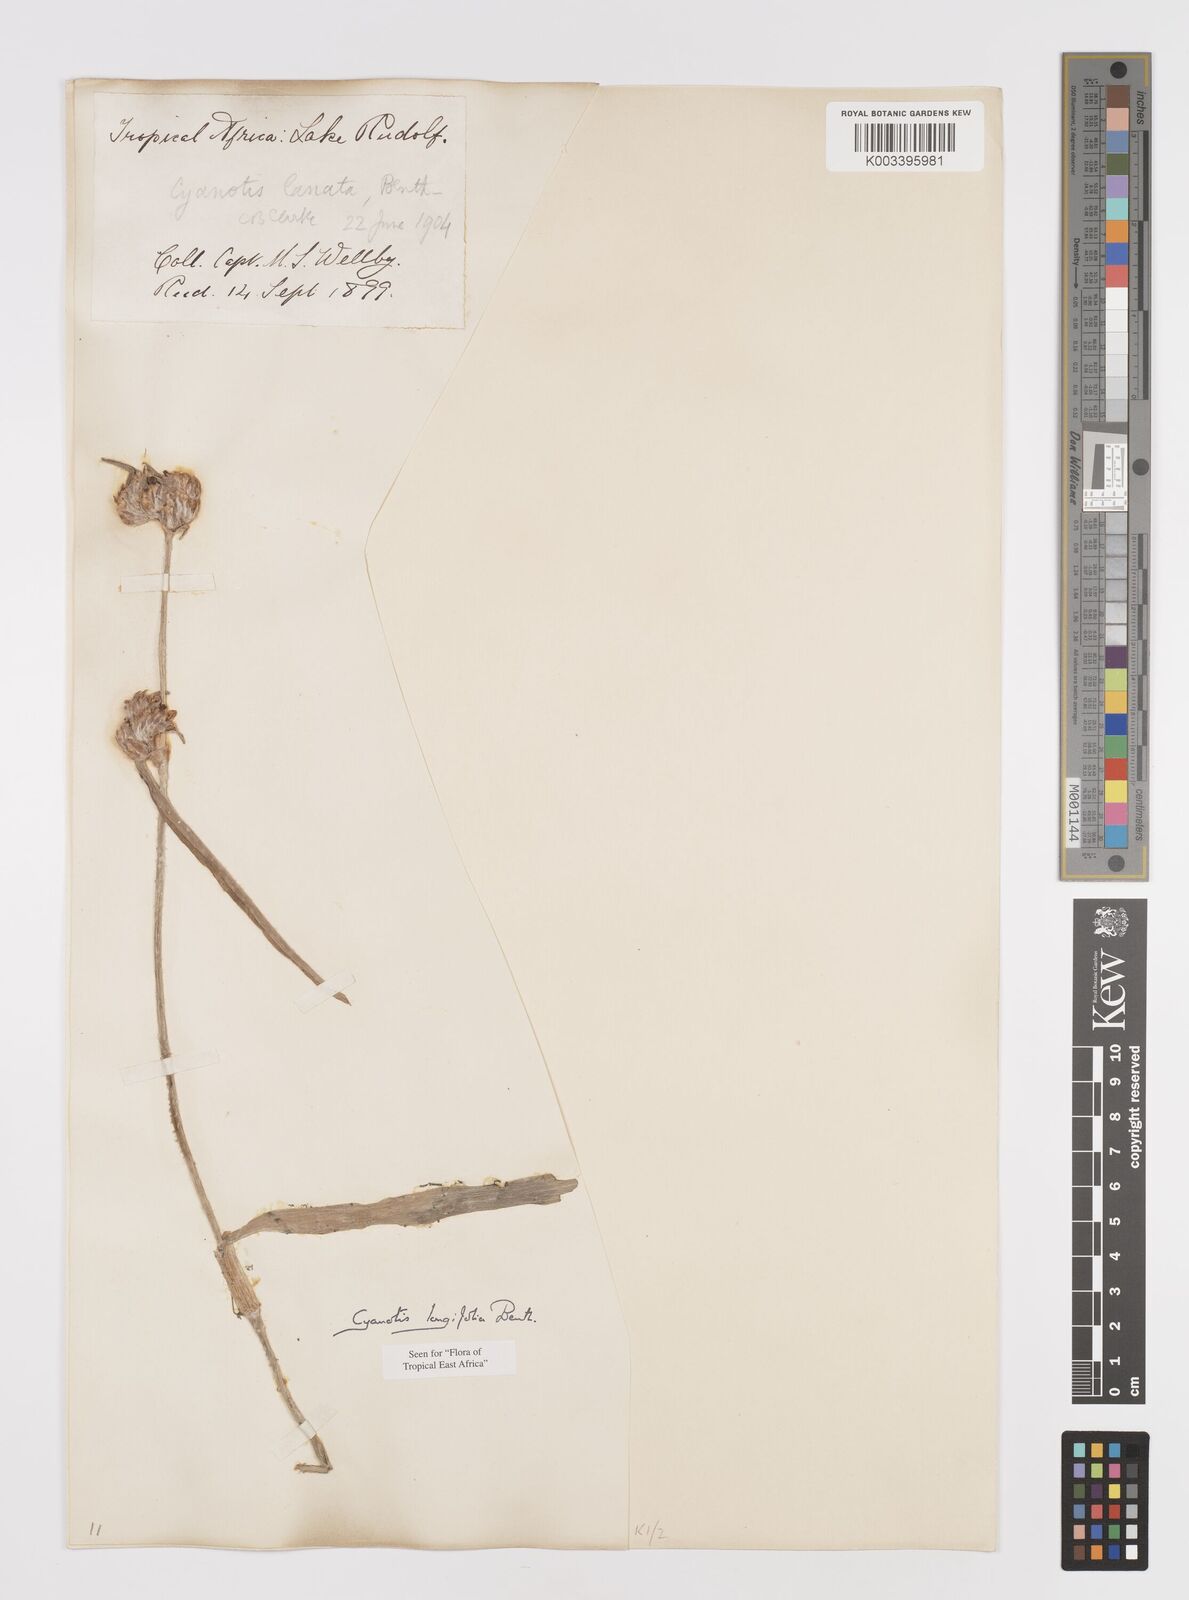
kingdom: Plantae
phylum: Tracheophyta
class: Liliopsida
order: Commelinales
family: Commelinaceae
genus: Cyanotis
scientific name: Cyanotis longifolia
